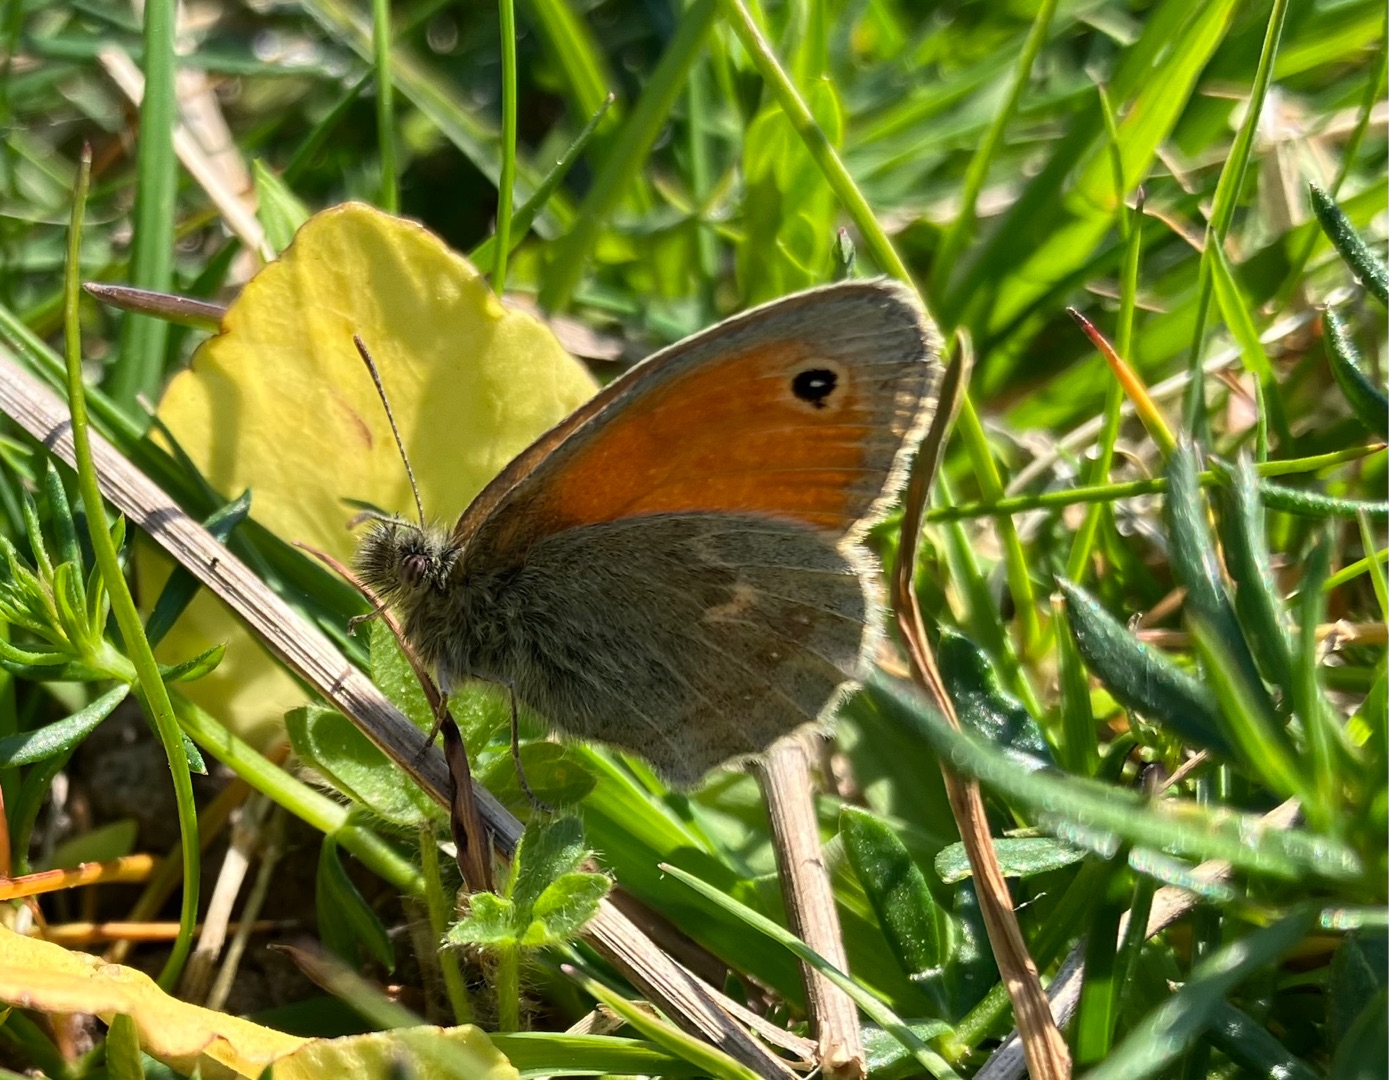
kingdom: Animalia
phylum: Arthropoda
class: Insecta
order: Lepidoptera
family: Nymphalidae
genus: Coenonympha
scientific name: Coenonympha pamphilus
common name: Okkergul randøje
